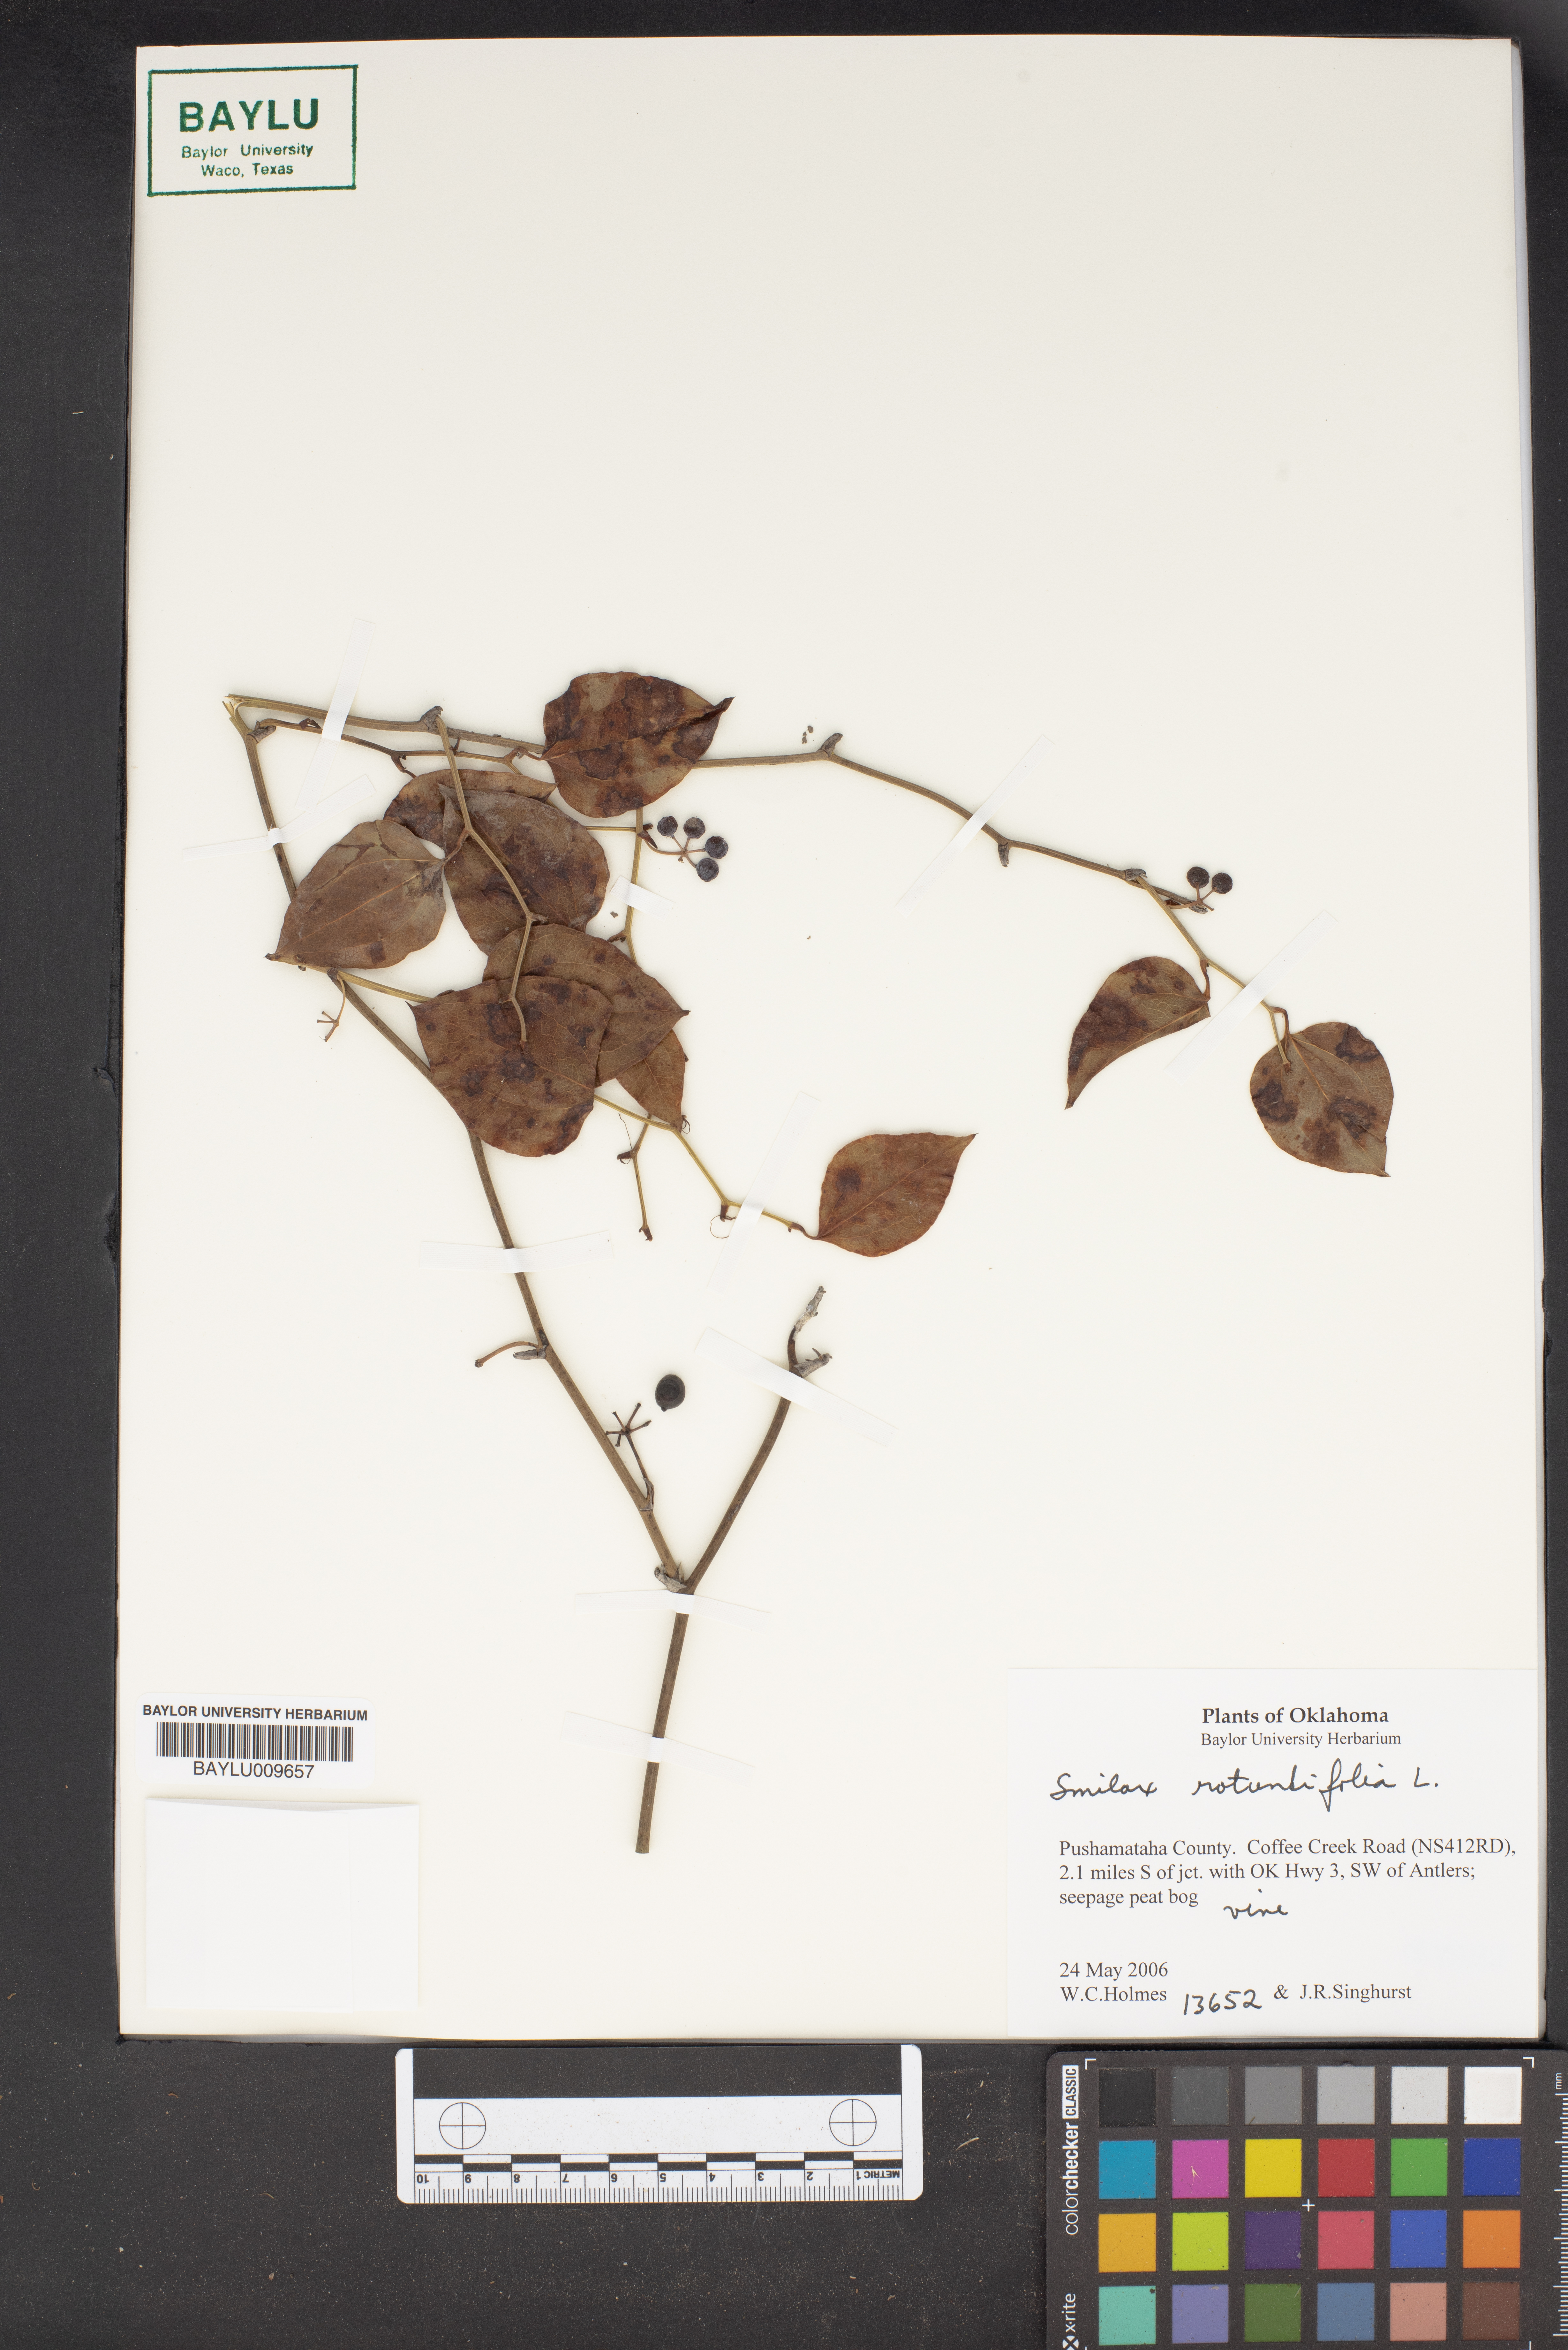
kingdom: Plantae
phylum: Tracheophyta
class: Liliopsida
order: Liliales
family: Smilacaceae
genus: Smilax
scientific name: Smilax rotundifolia
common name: Bullbriar
